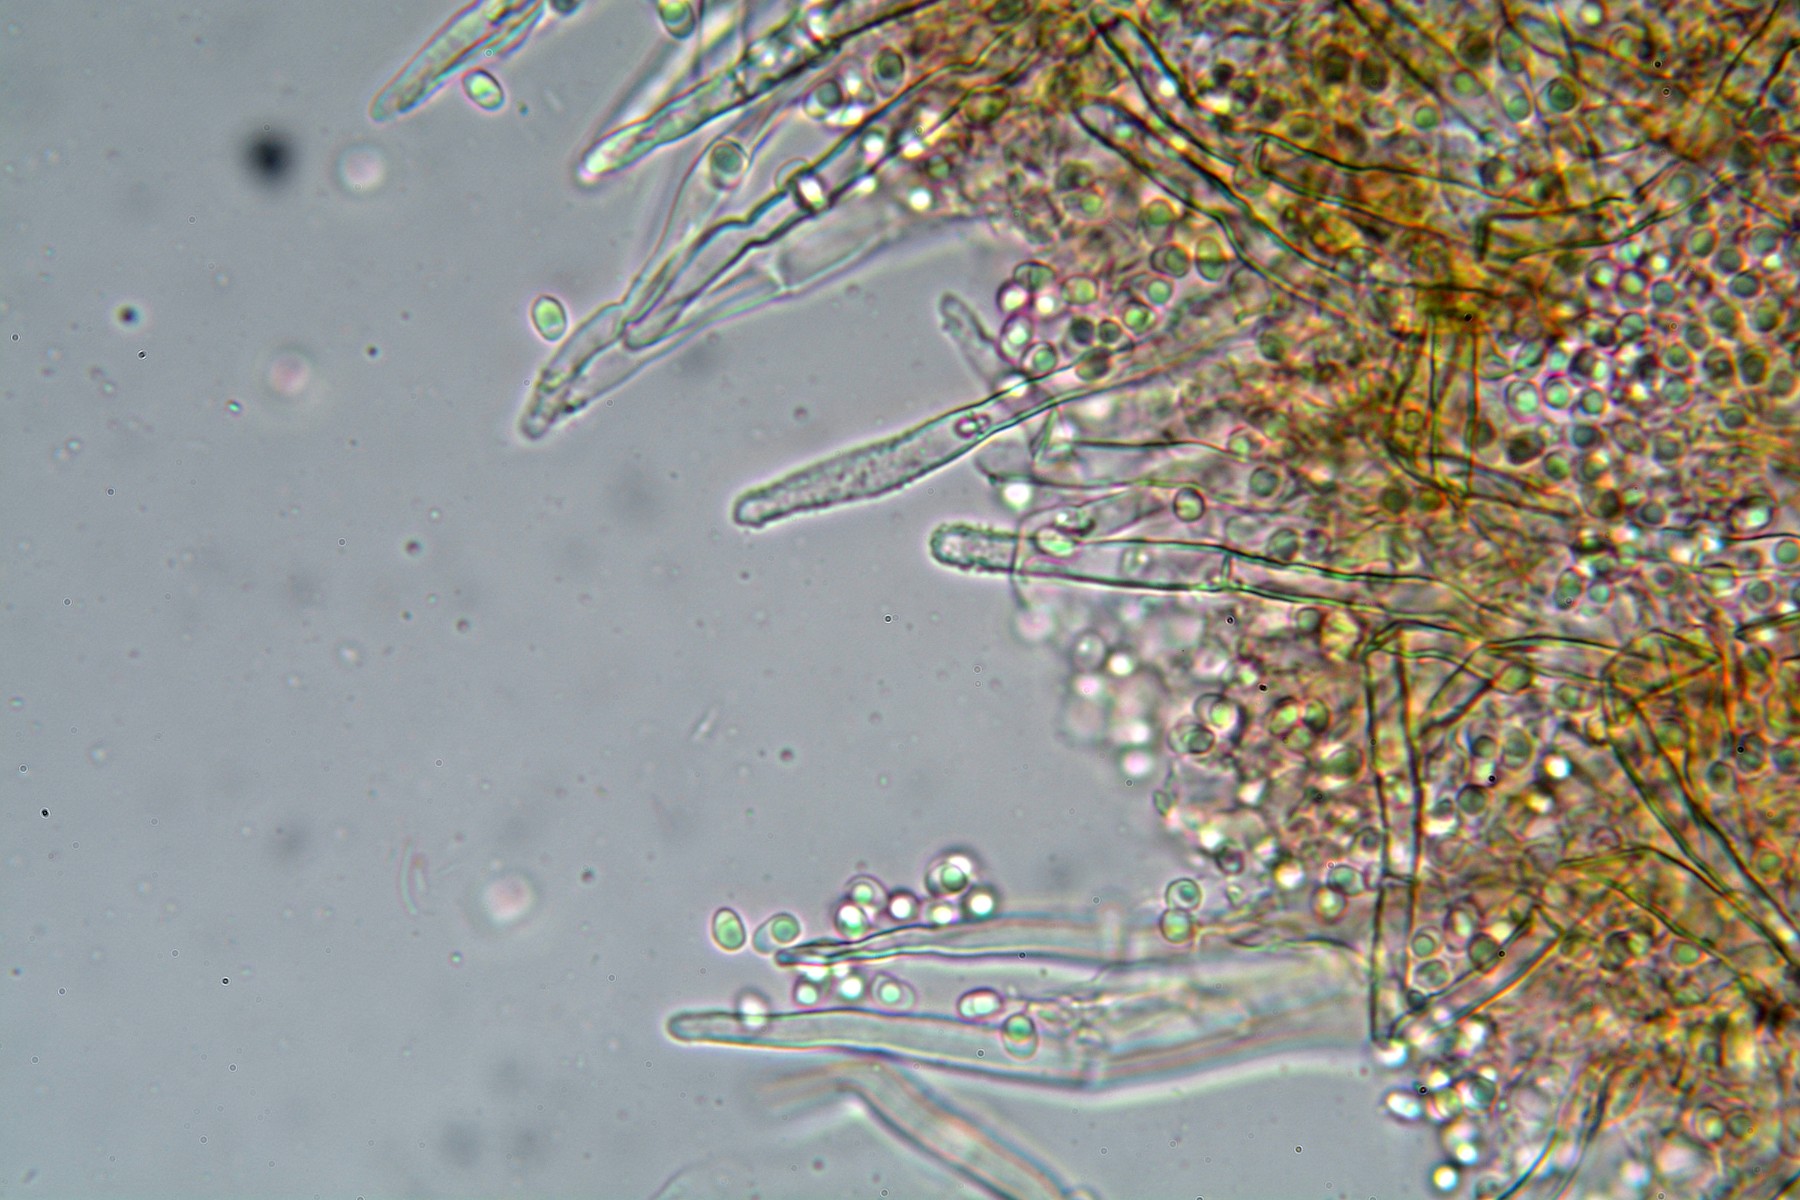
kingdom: Fungi
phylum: Basidiomycota
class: Agaricomycetes
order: Atheliales
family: Atheliaceae
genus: Amphinema
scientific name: Amphinema byssoides
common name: almindelig rodhinde
